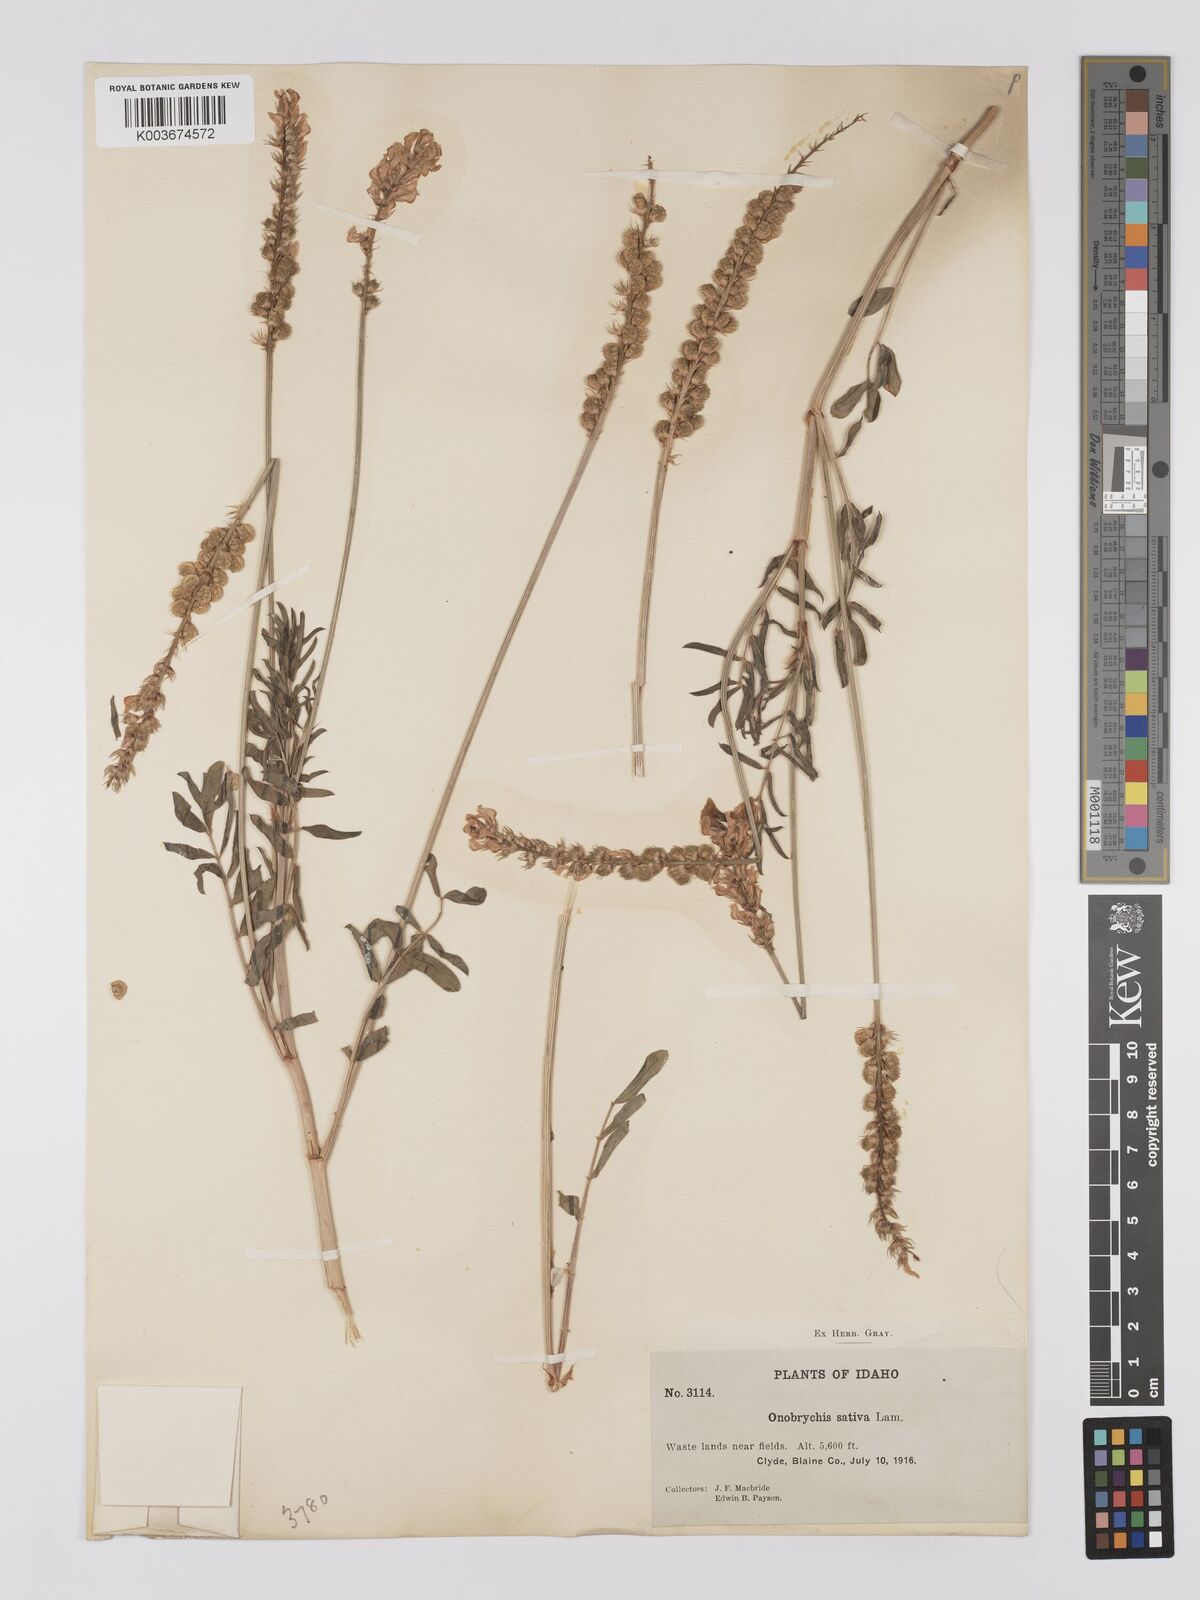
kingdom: Plantae
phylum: Tracheophyta
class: Magnoliopsida
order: Fabales
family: Fabaceae
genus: Onobrychis
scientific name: Onobrychis viciifolia
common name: Sainfoin
